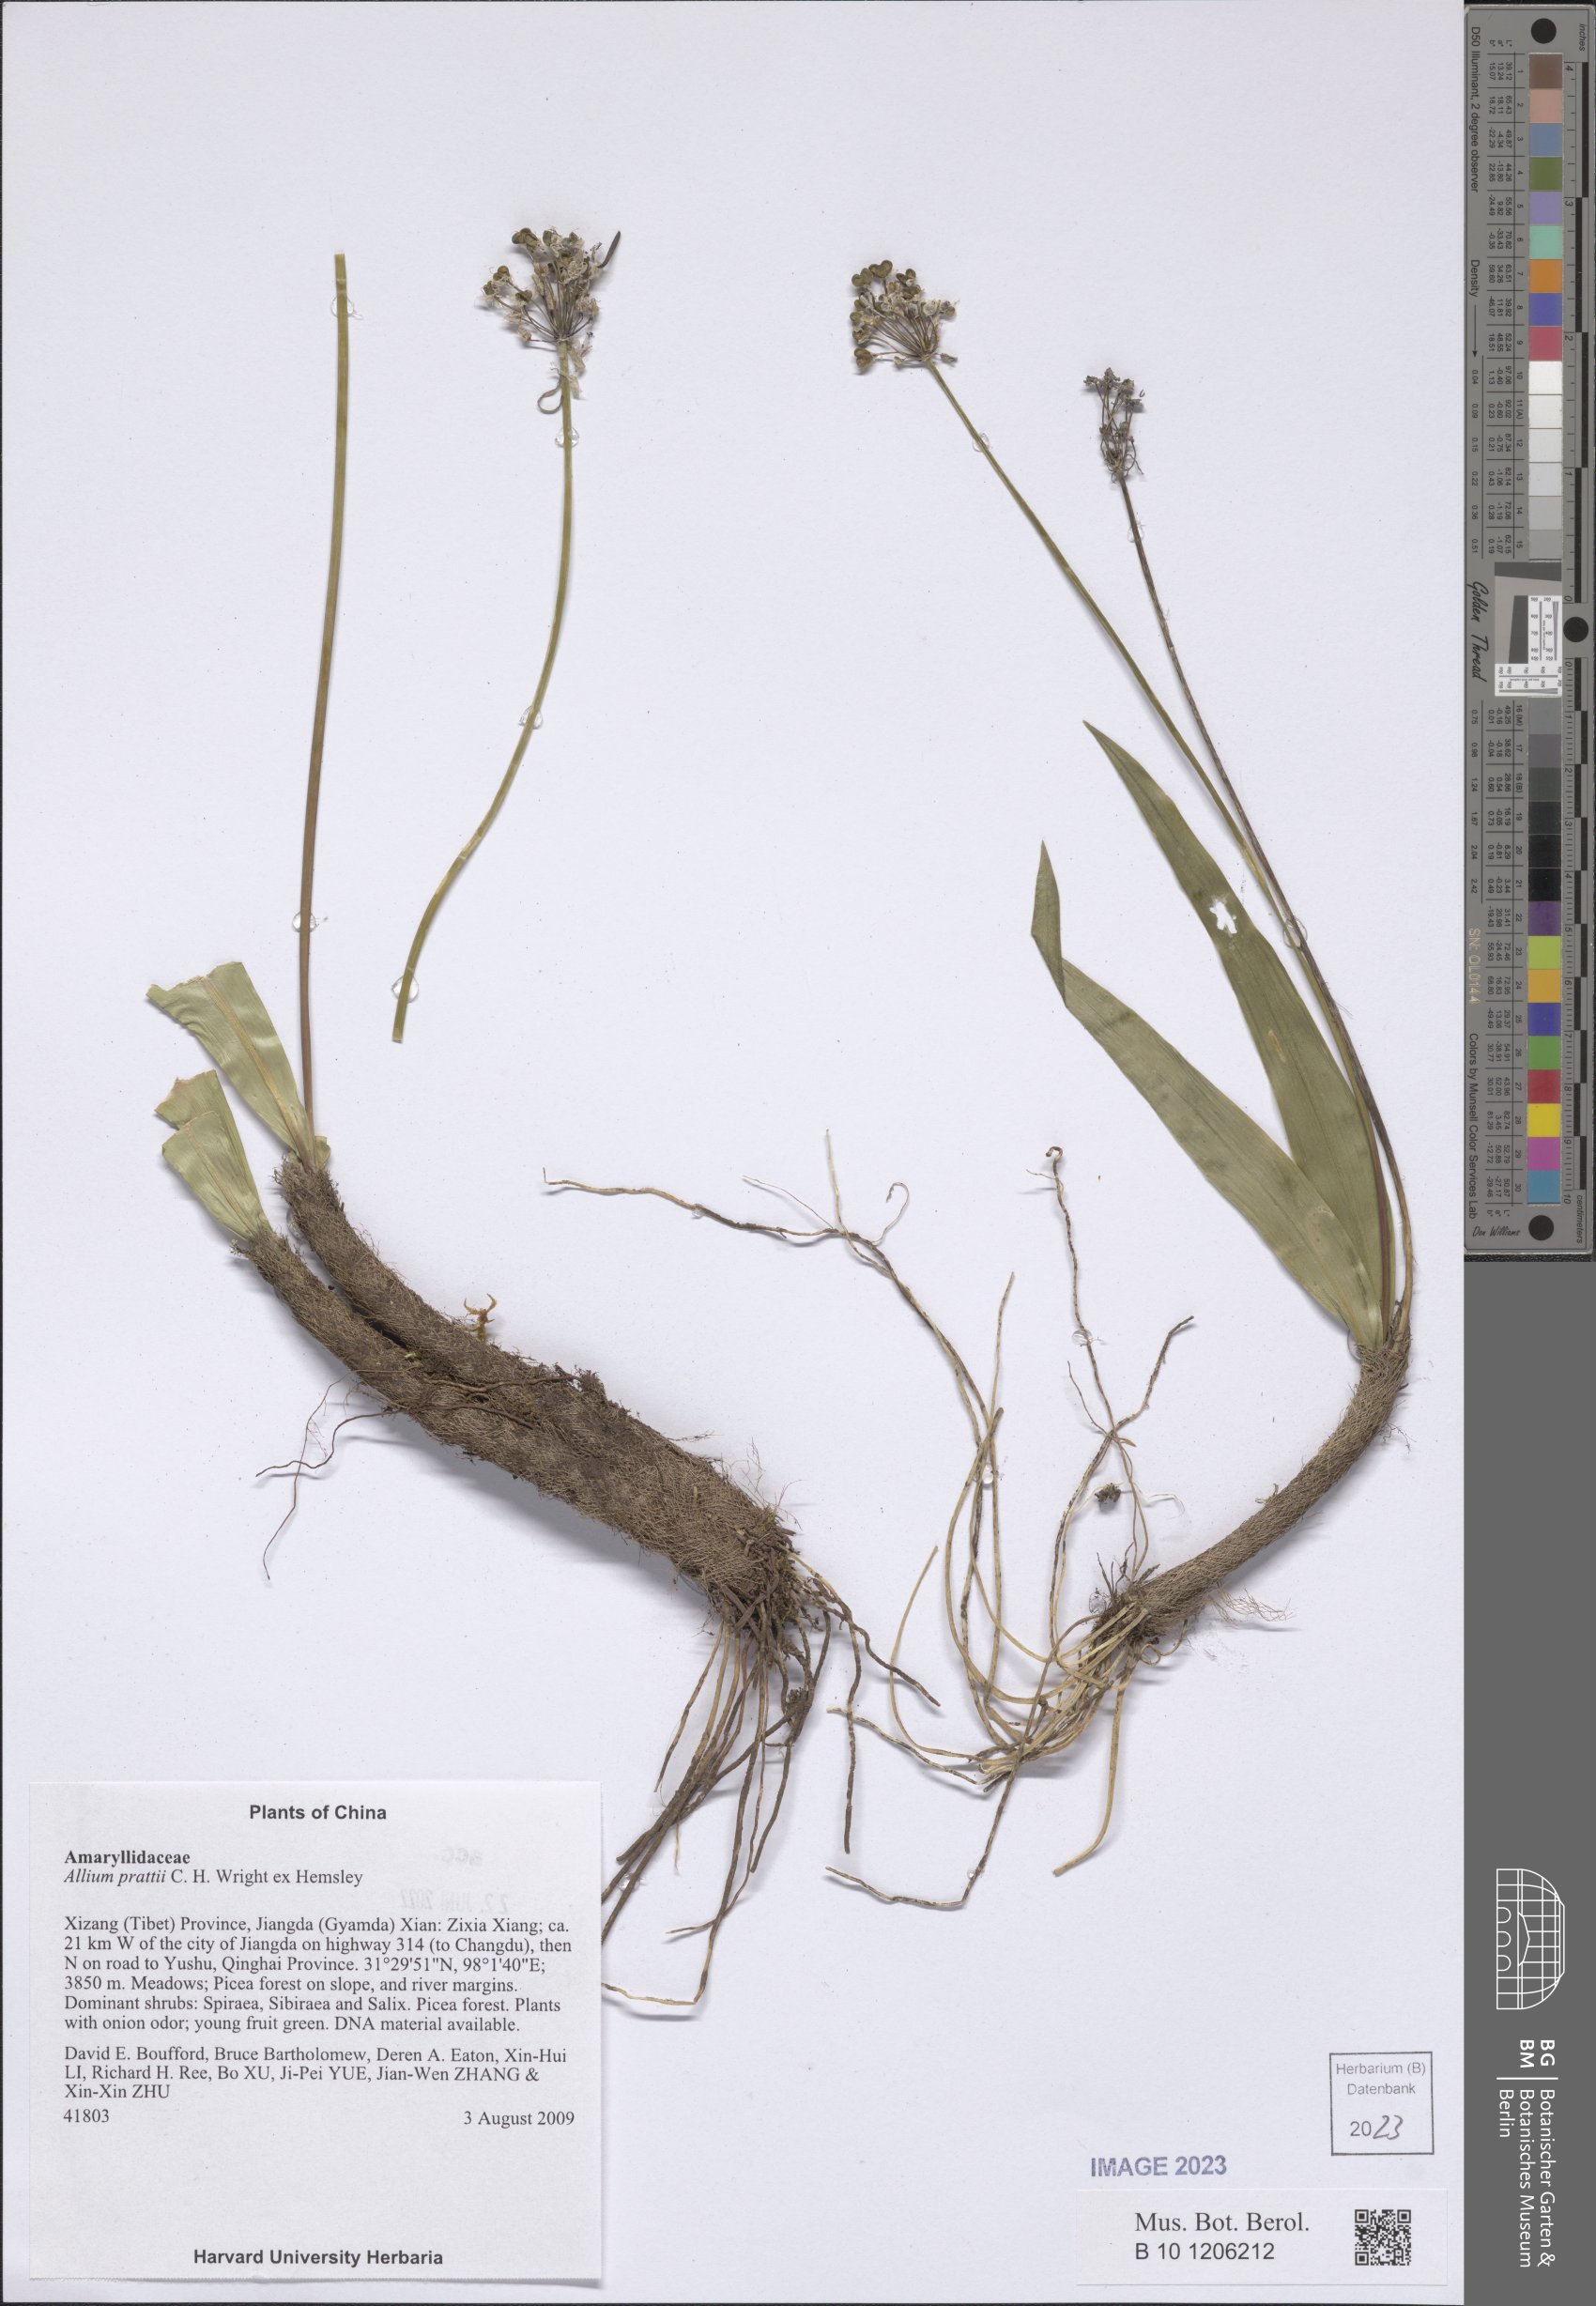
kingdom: Plantae
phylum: Tracheophyta
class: Liliopsida
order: Asparagales
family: Amaryllidaceae
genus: Allium
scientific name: Allium prattii
